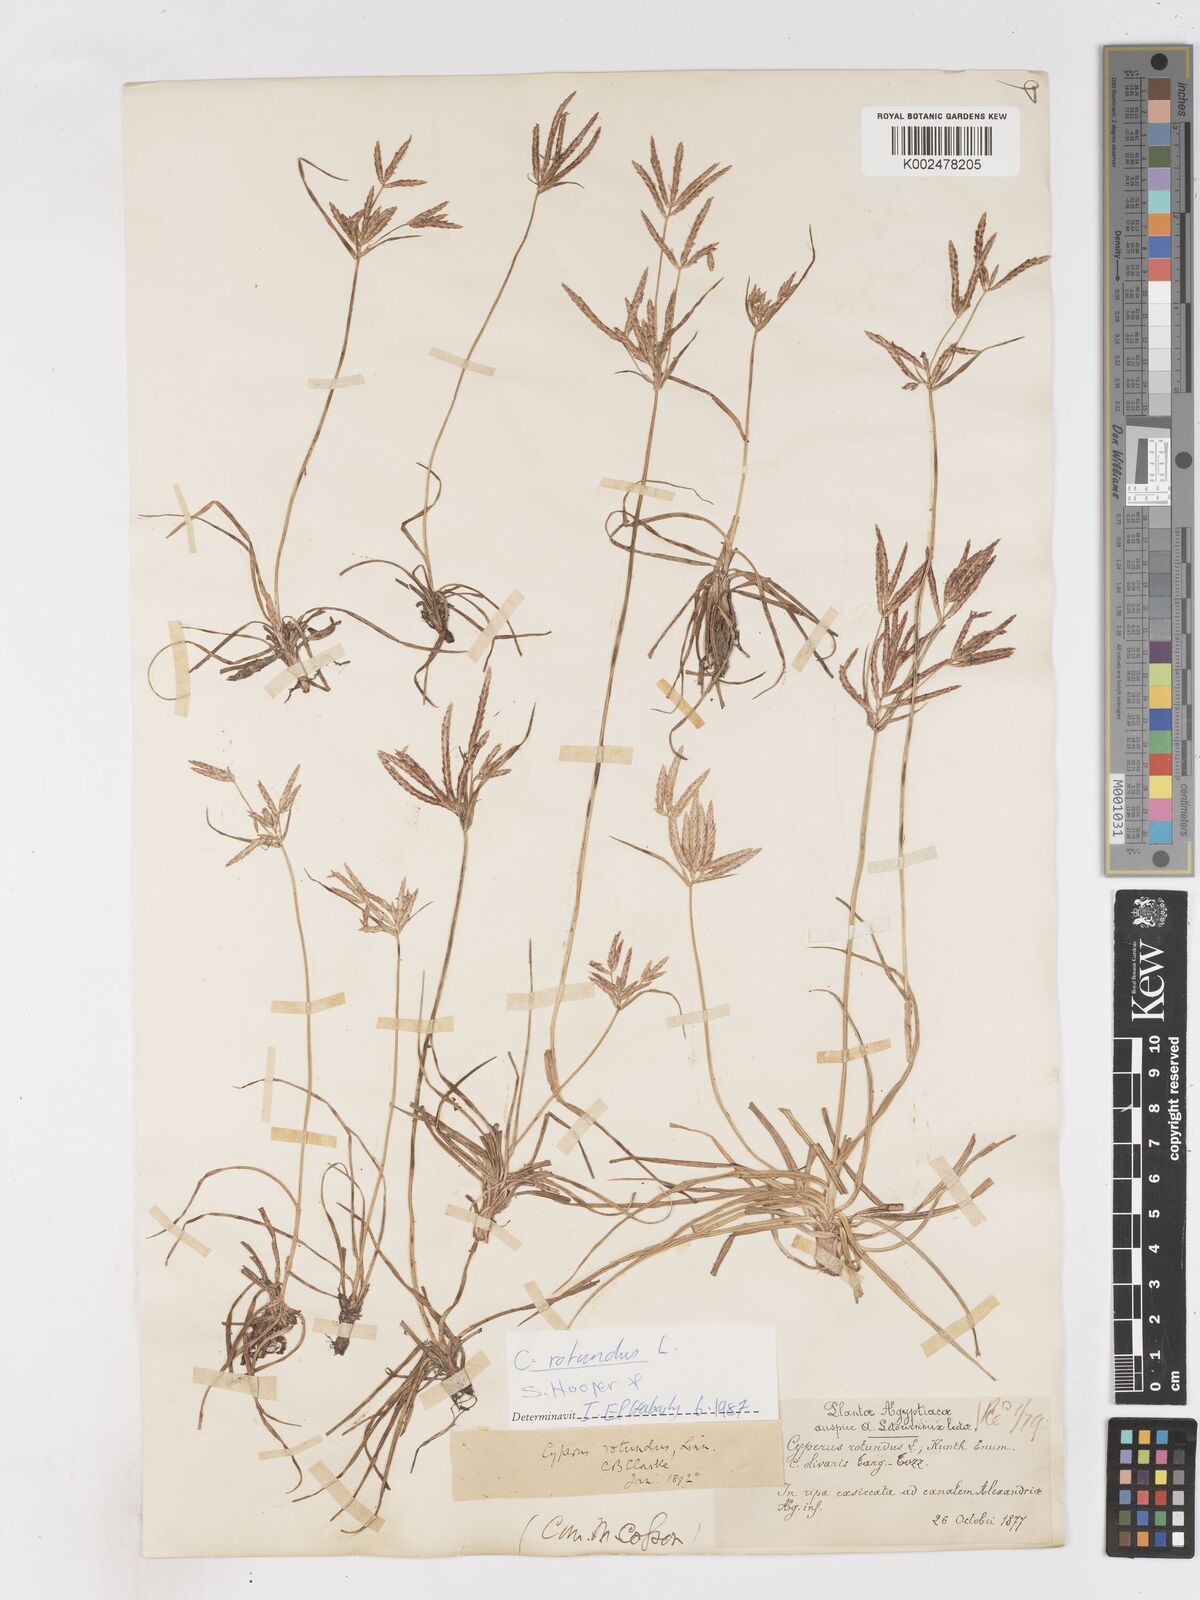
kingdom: Plantae
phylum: Tracheophyta
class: Liliopsida
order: Poales
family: Cyperaceae
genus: Cyperus
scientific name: Cyperus rotundus
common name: Nutgrass
